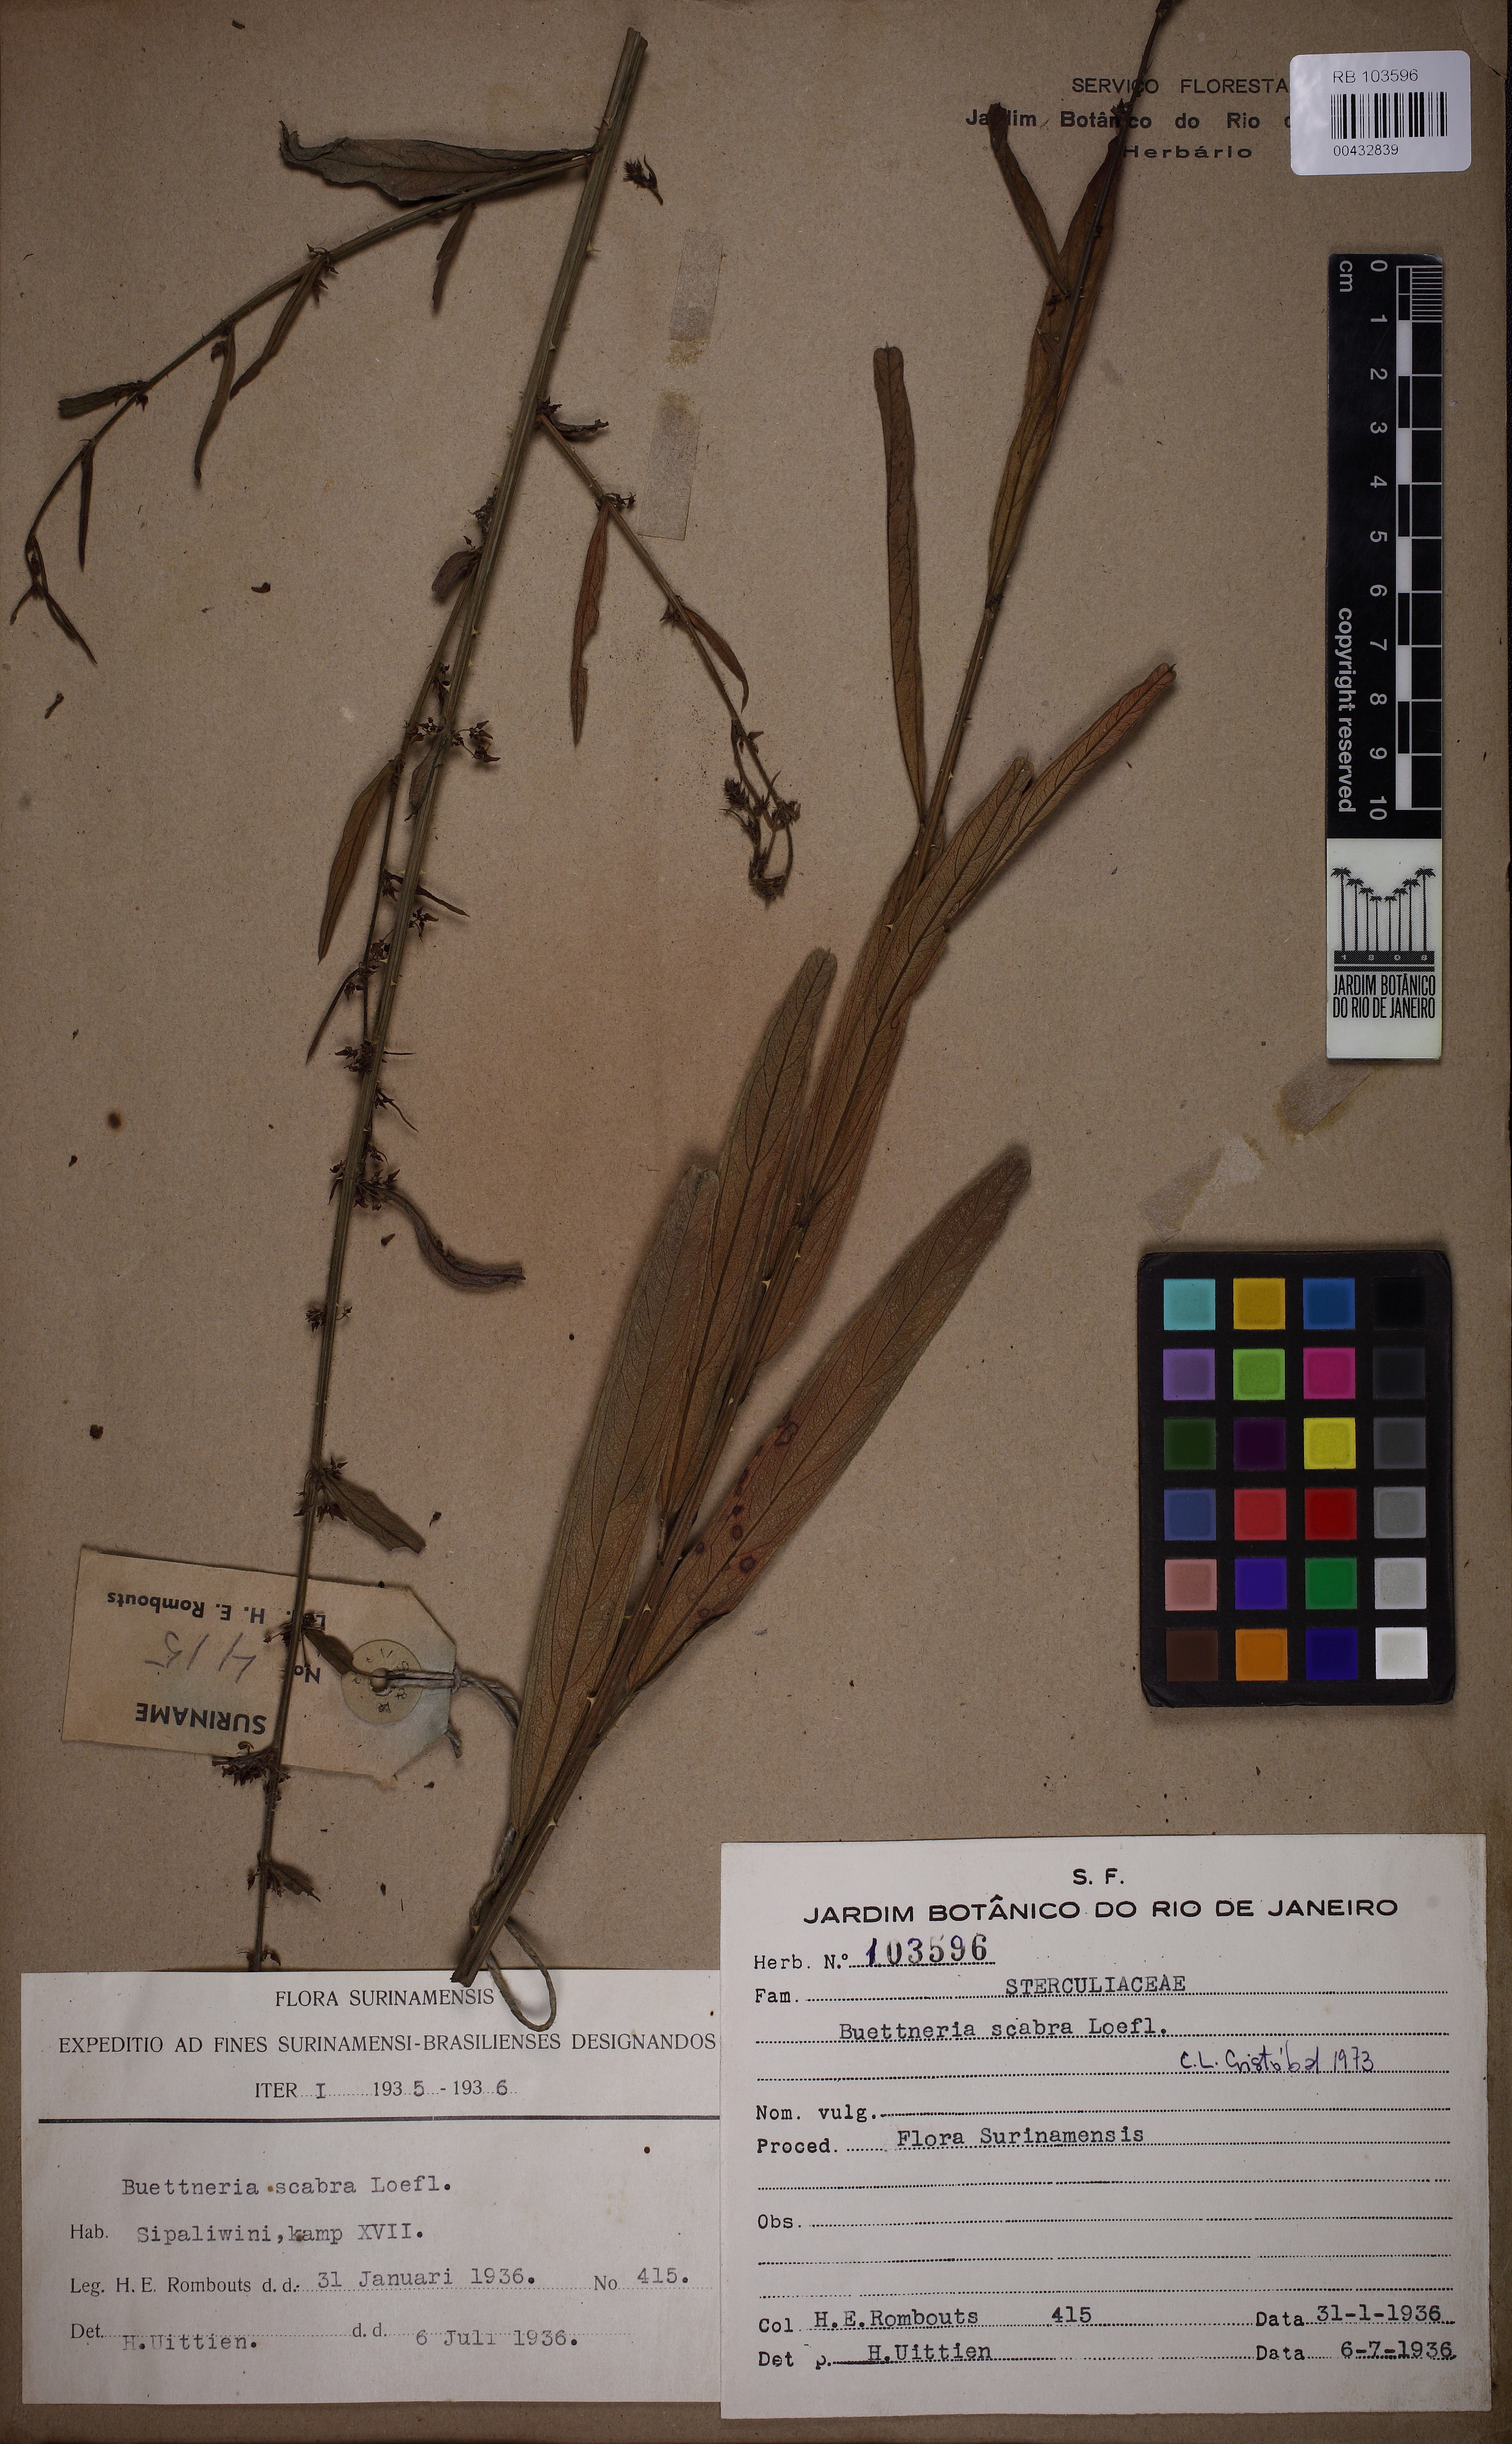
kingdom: Plantae
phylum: Tracheophyta
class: Magnoliopsida
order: Malvales
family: Malvaceae
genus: Byttneria
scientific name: Byttneria scabra
